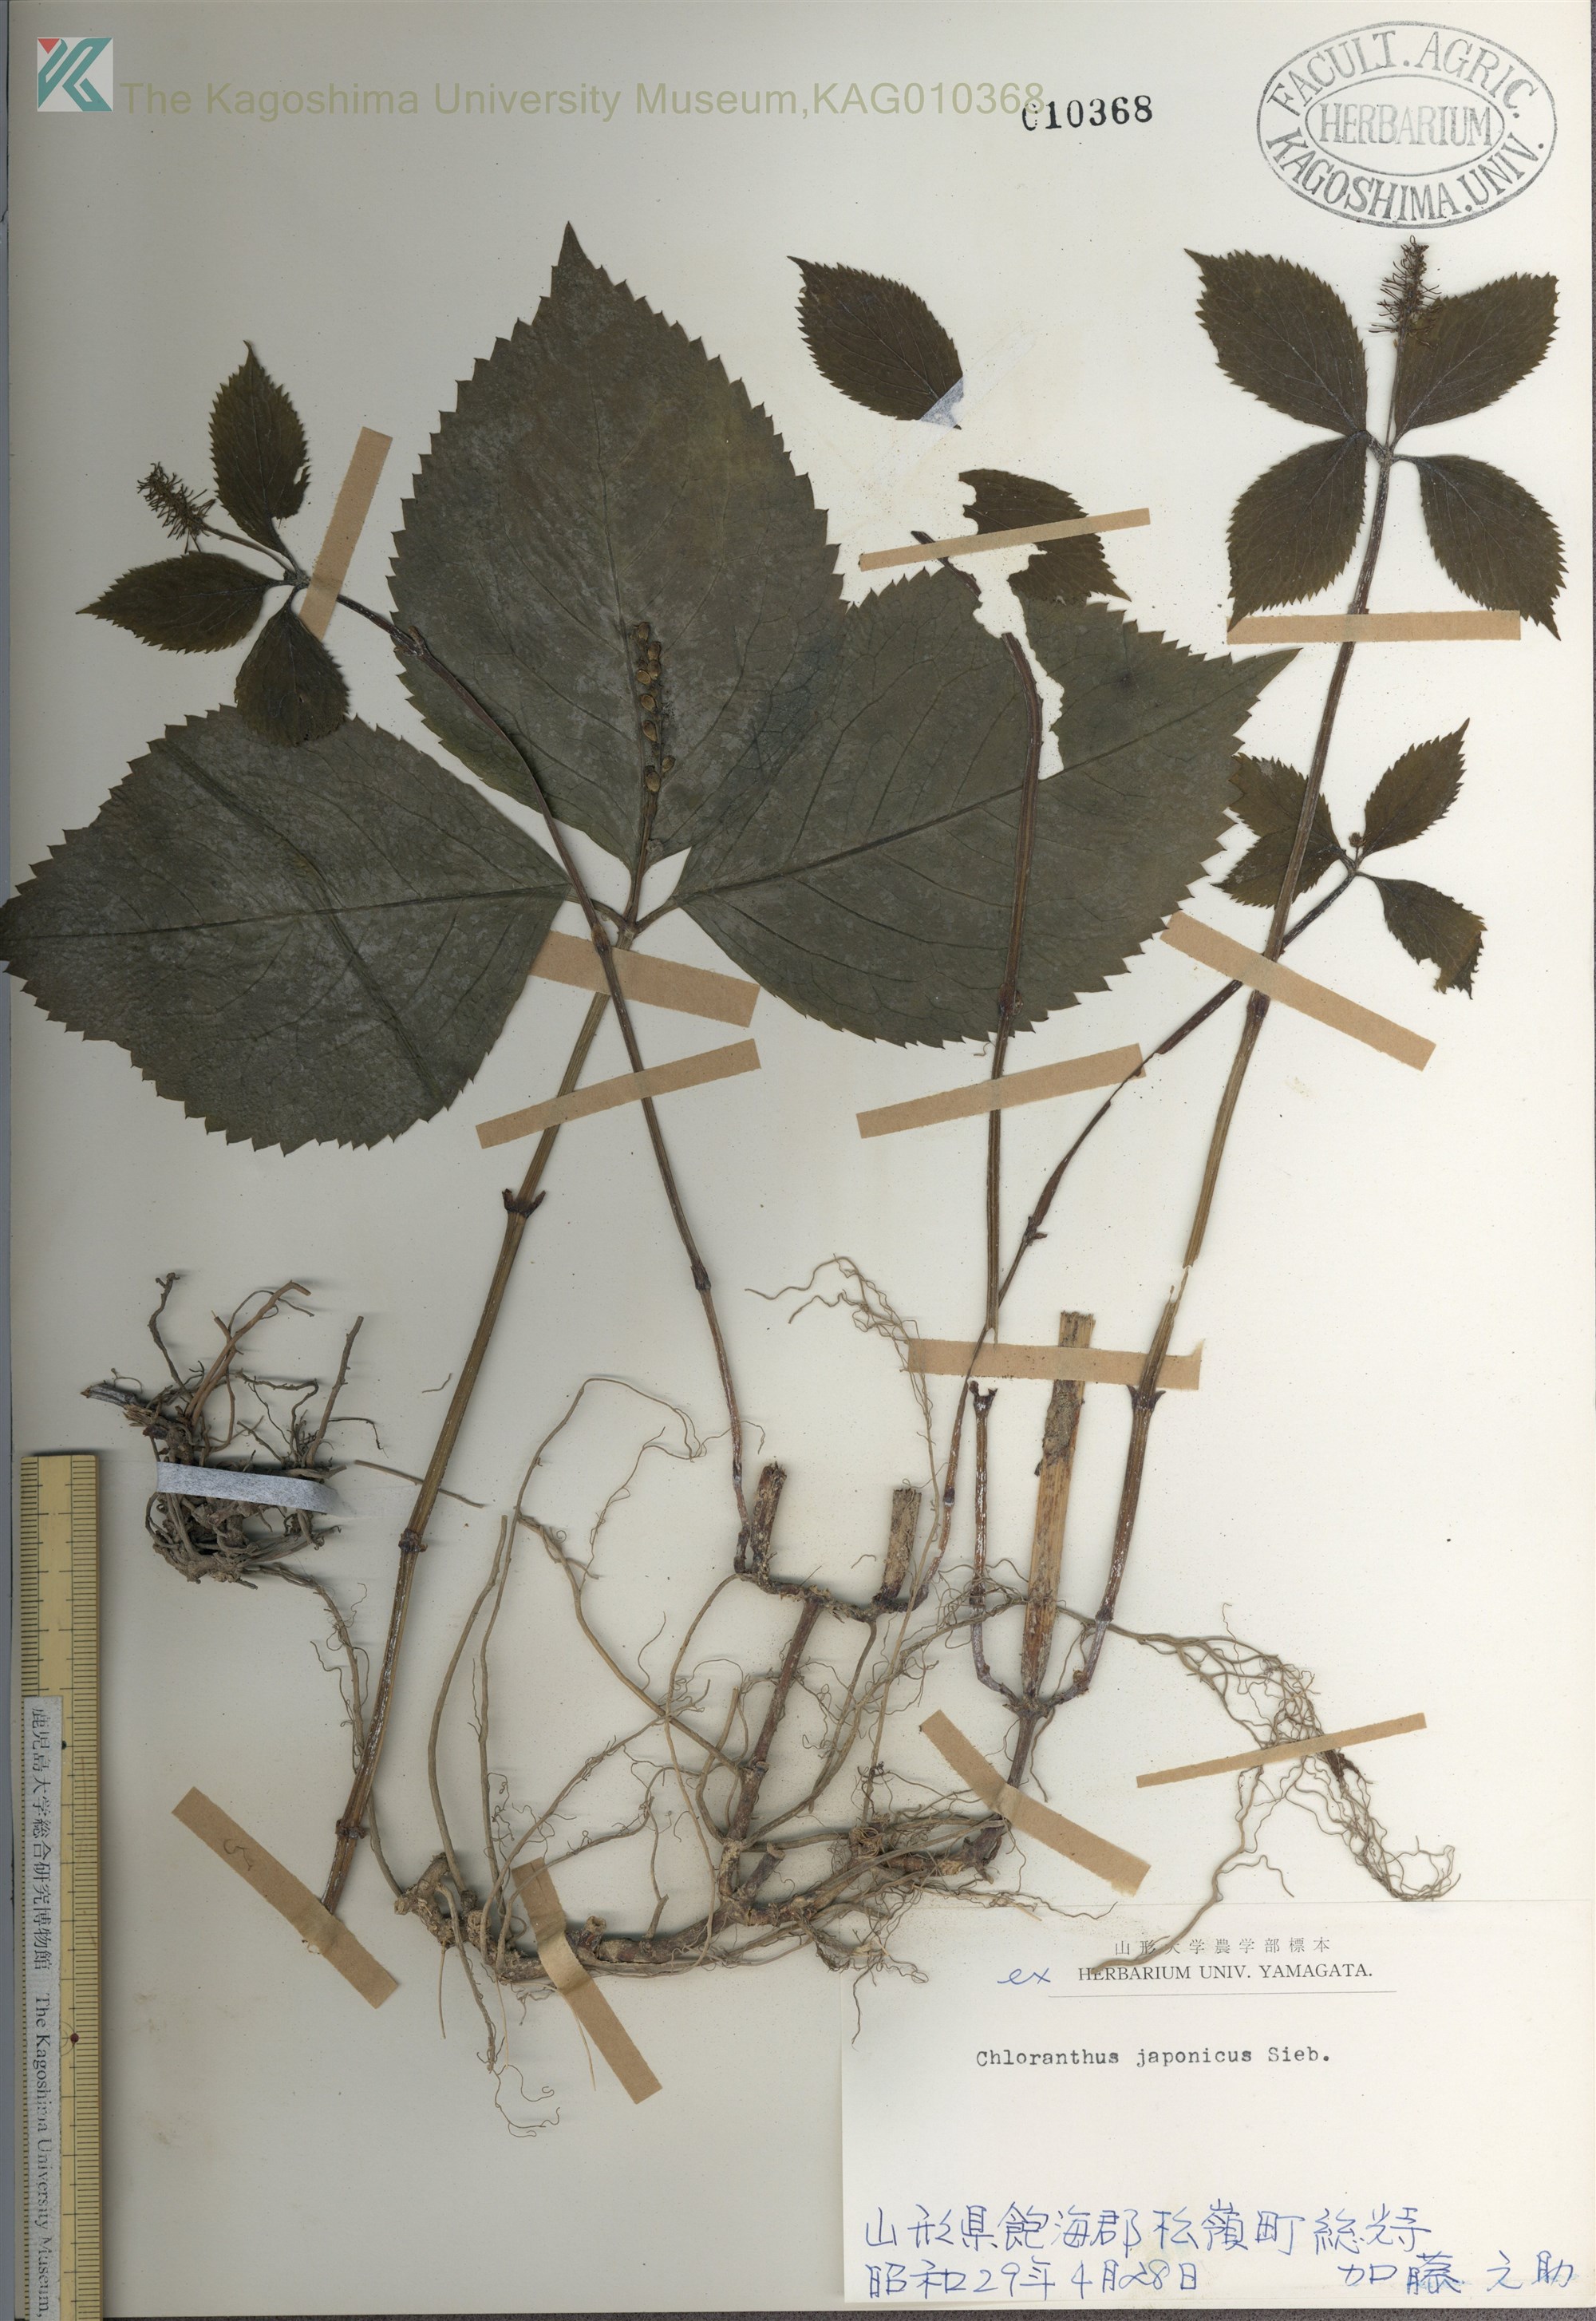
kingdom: Plantae
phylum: Tracheophyta
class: Magnoliopsida
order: Chloranthales
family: Chloranthaceae
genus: Chloranthus
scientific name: Chloranthus japonicus
